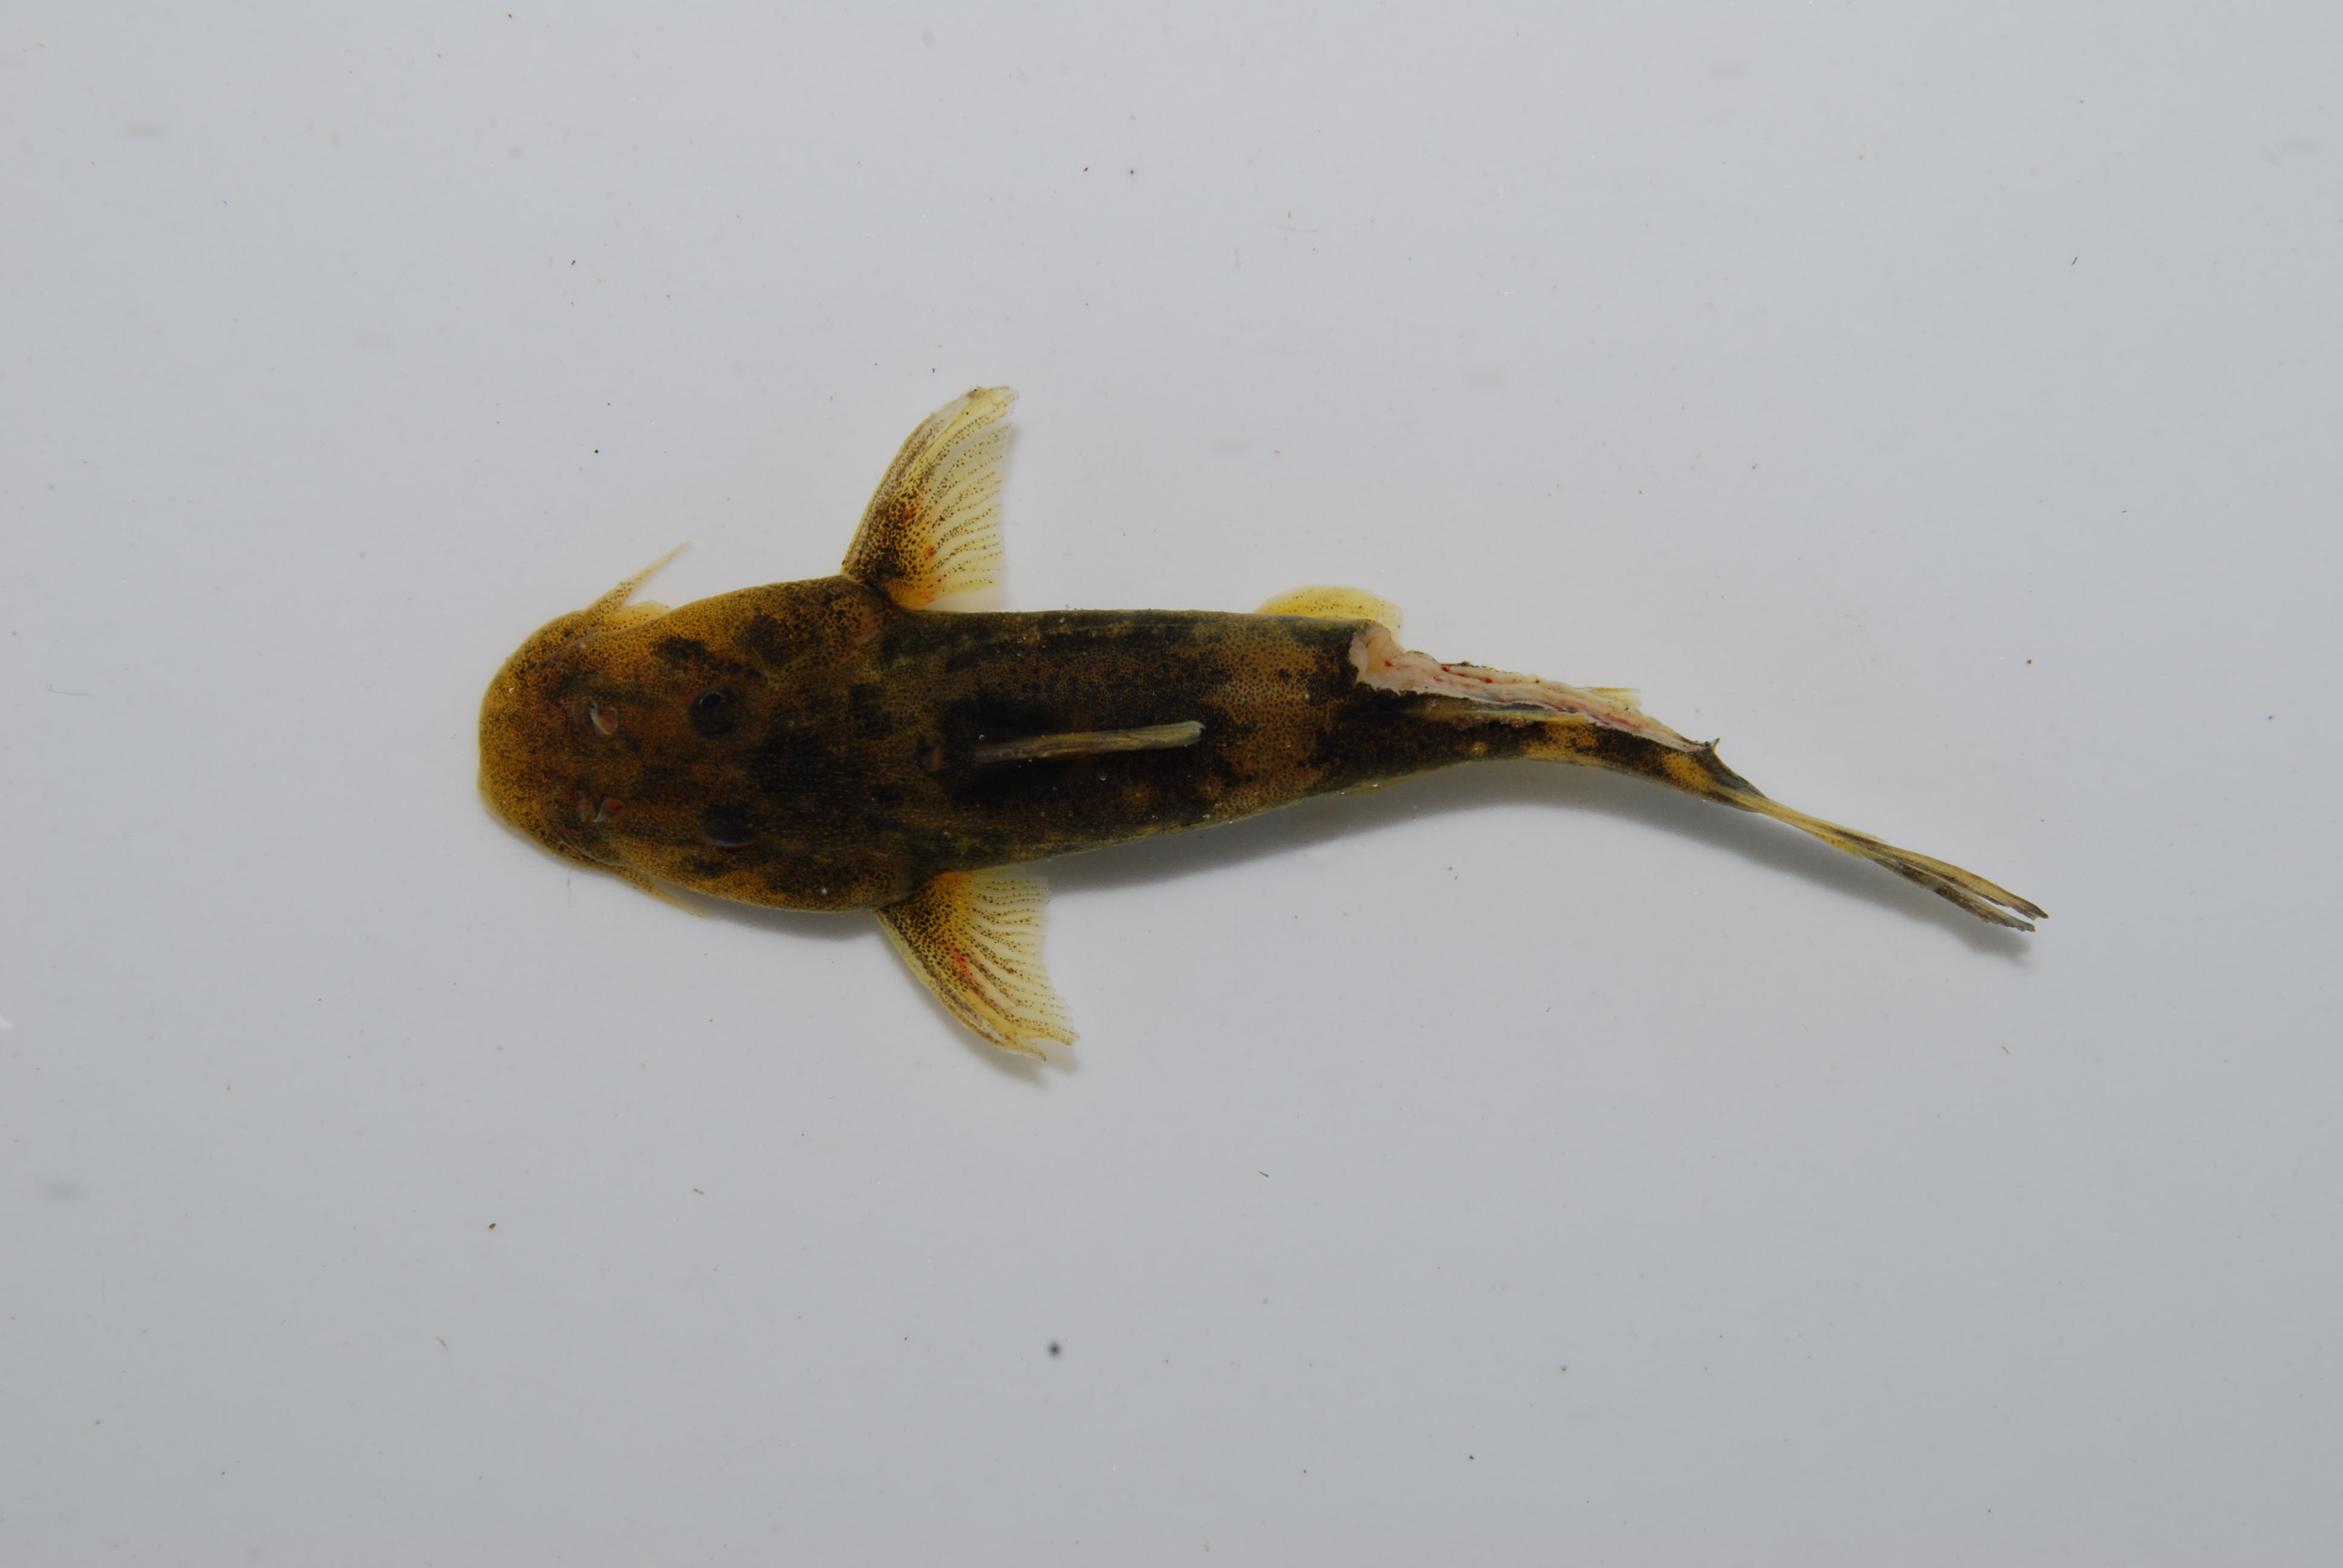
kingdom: Animalia
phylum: Chordata
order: Siluriformes
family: Mochokidae
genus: Chiloglanis
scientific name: Chiloglanis
